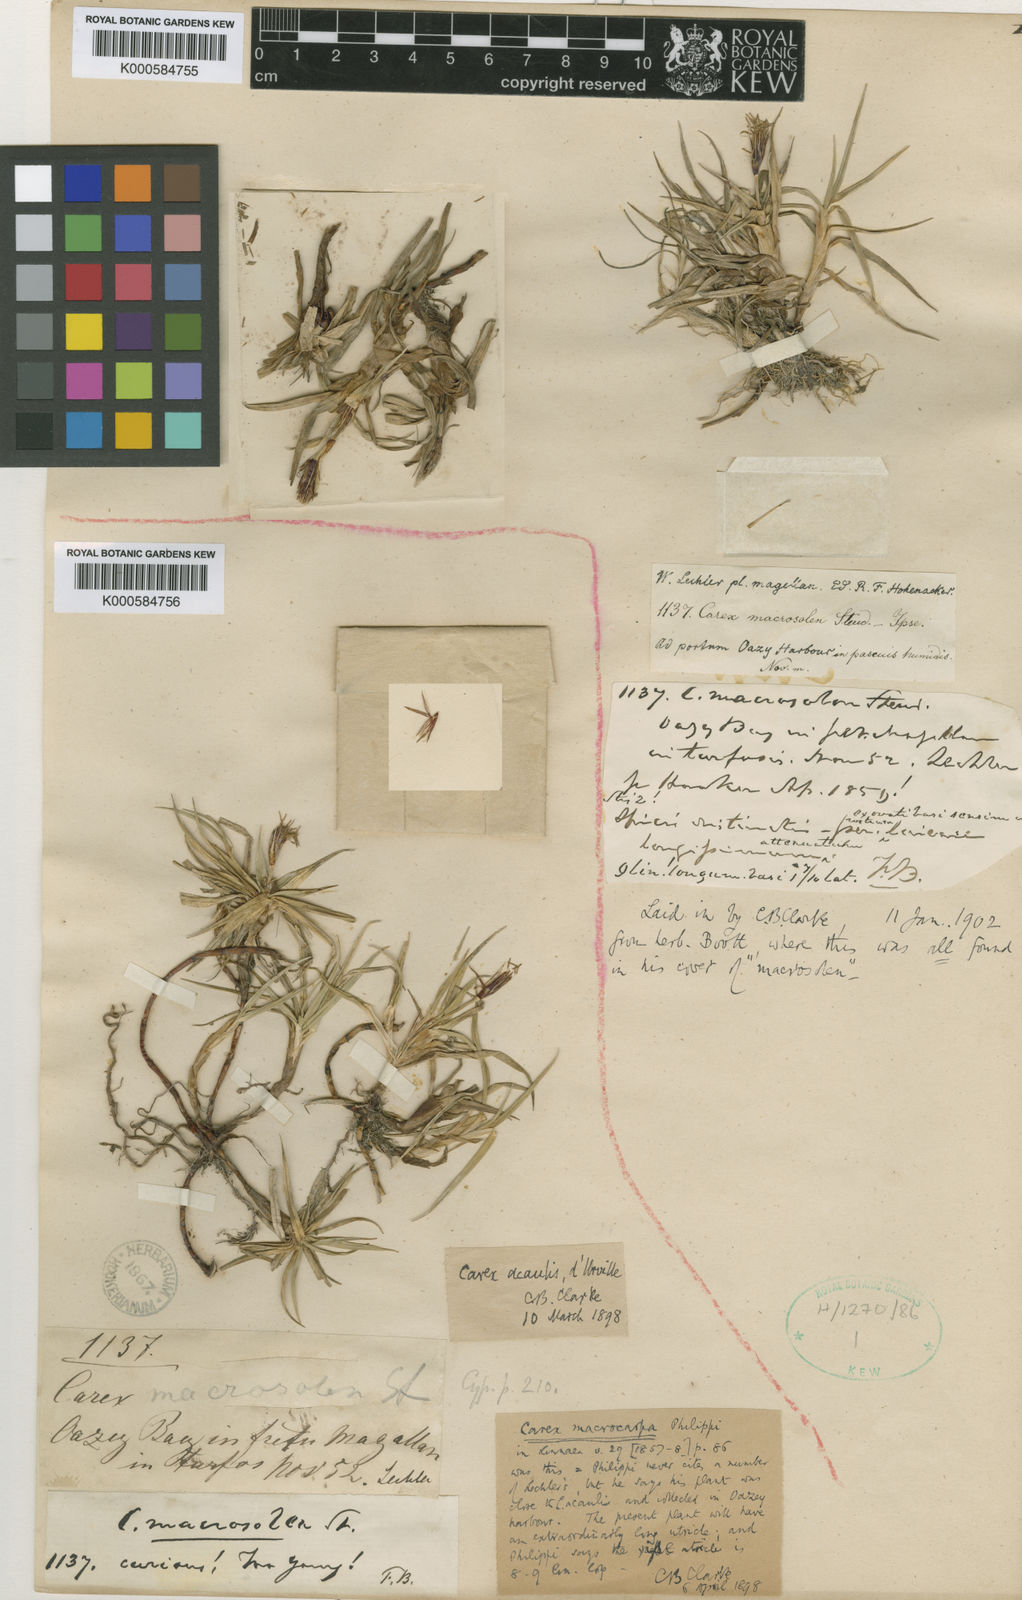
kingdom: Plantae
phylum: Tracheophyta
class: Liliopsida
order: Poales
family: Cyperaceae
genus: Carex
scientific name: Carex macrosolen
